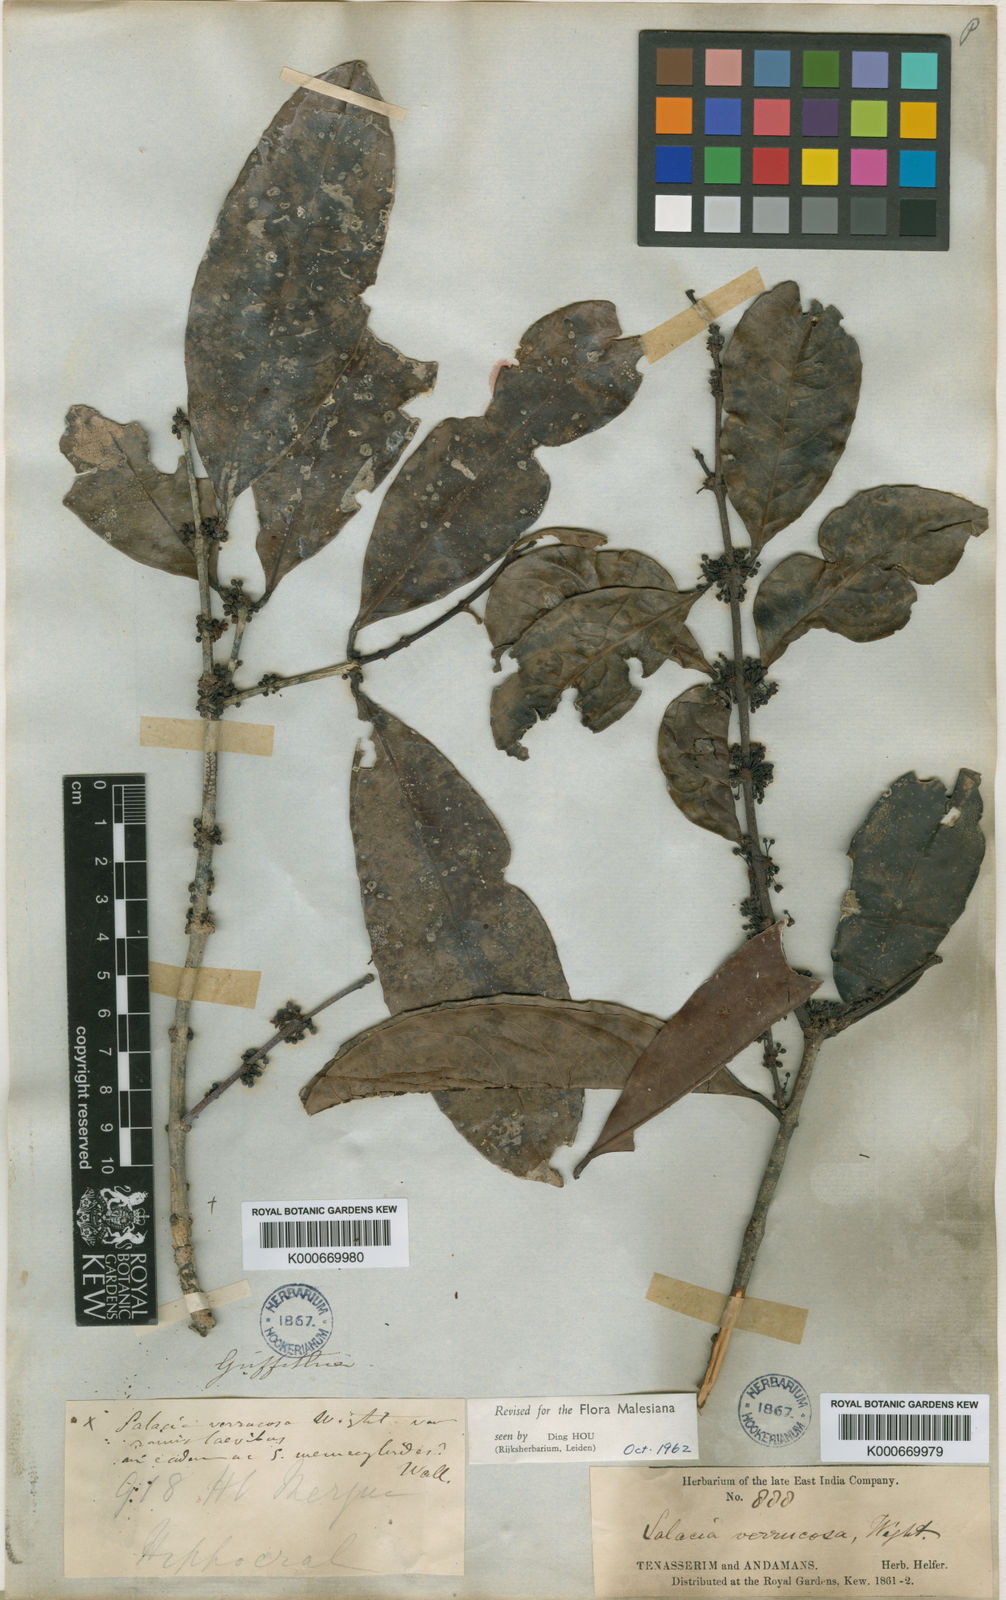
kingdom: Plantae
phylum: Tracheophyta
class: Magnoliopsida
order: Celastrales
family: Celastraceae
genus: Salacia
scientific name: Salacia verrucosa
